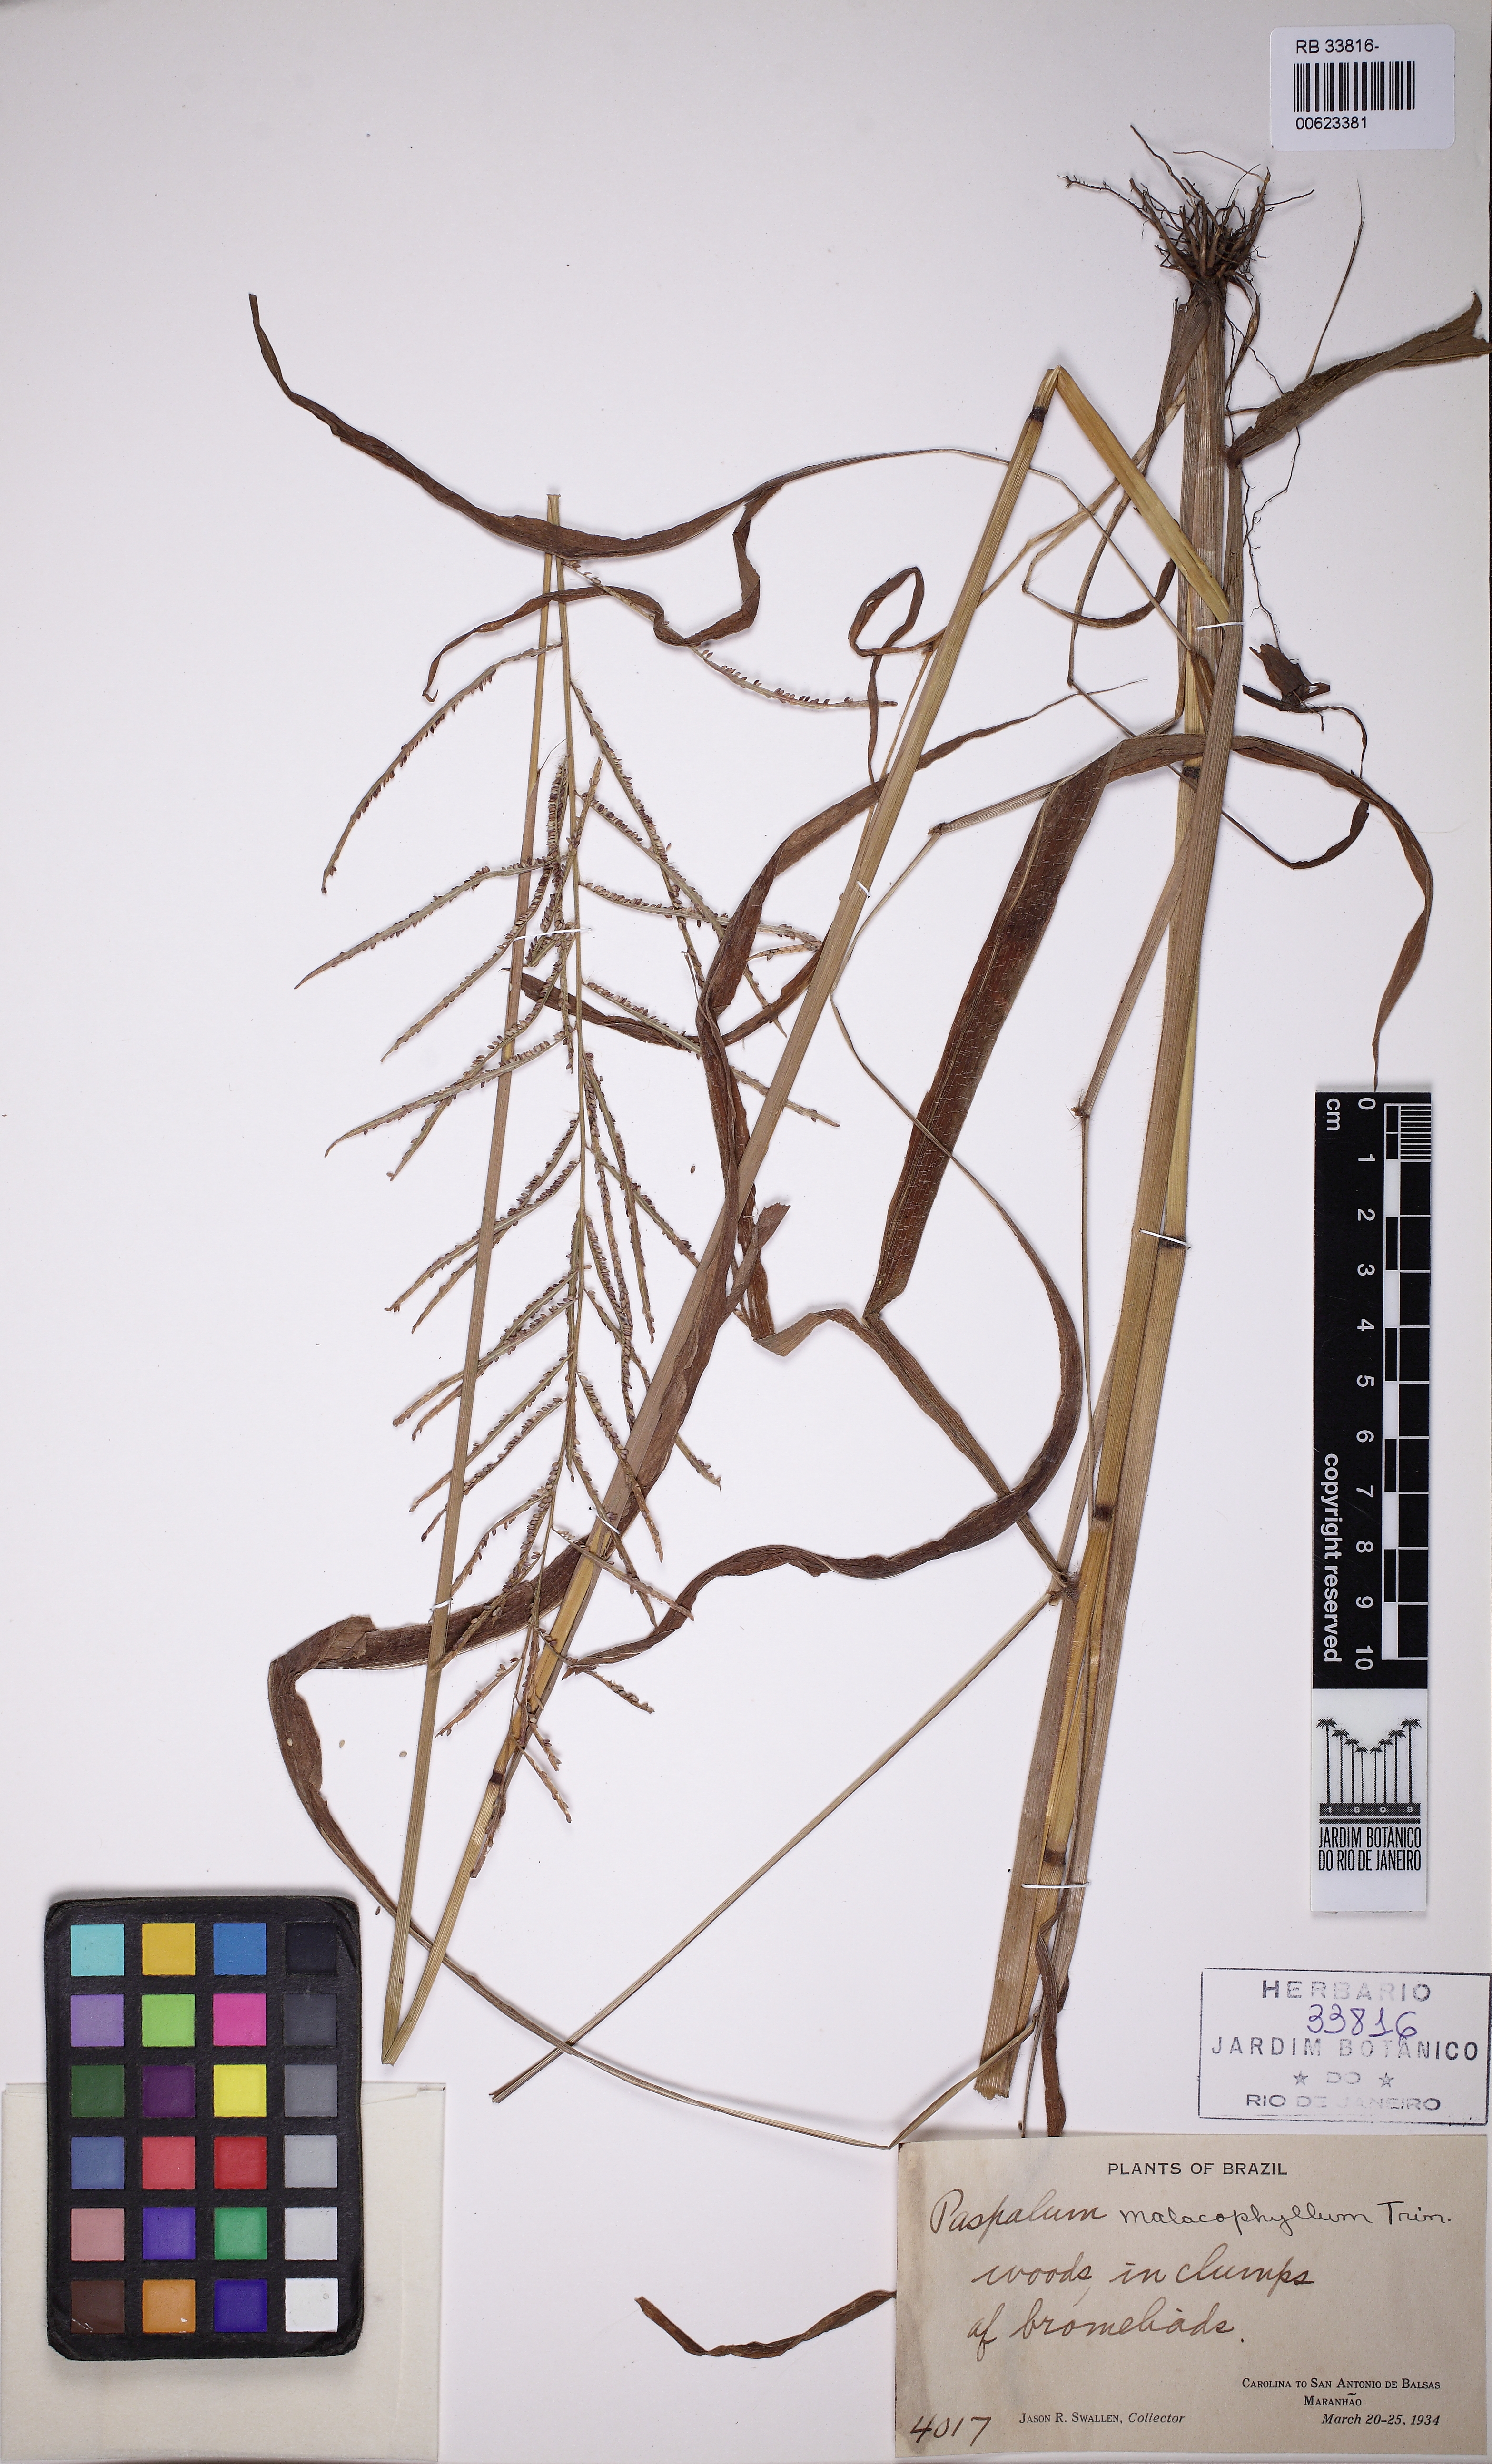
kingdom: Plantae
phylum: Tracheophyta
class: Liliopsida
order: Poales
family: Poaceae
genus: Paspalum
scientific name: Paspalum malacophyllum
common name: Ribbed paspalum
